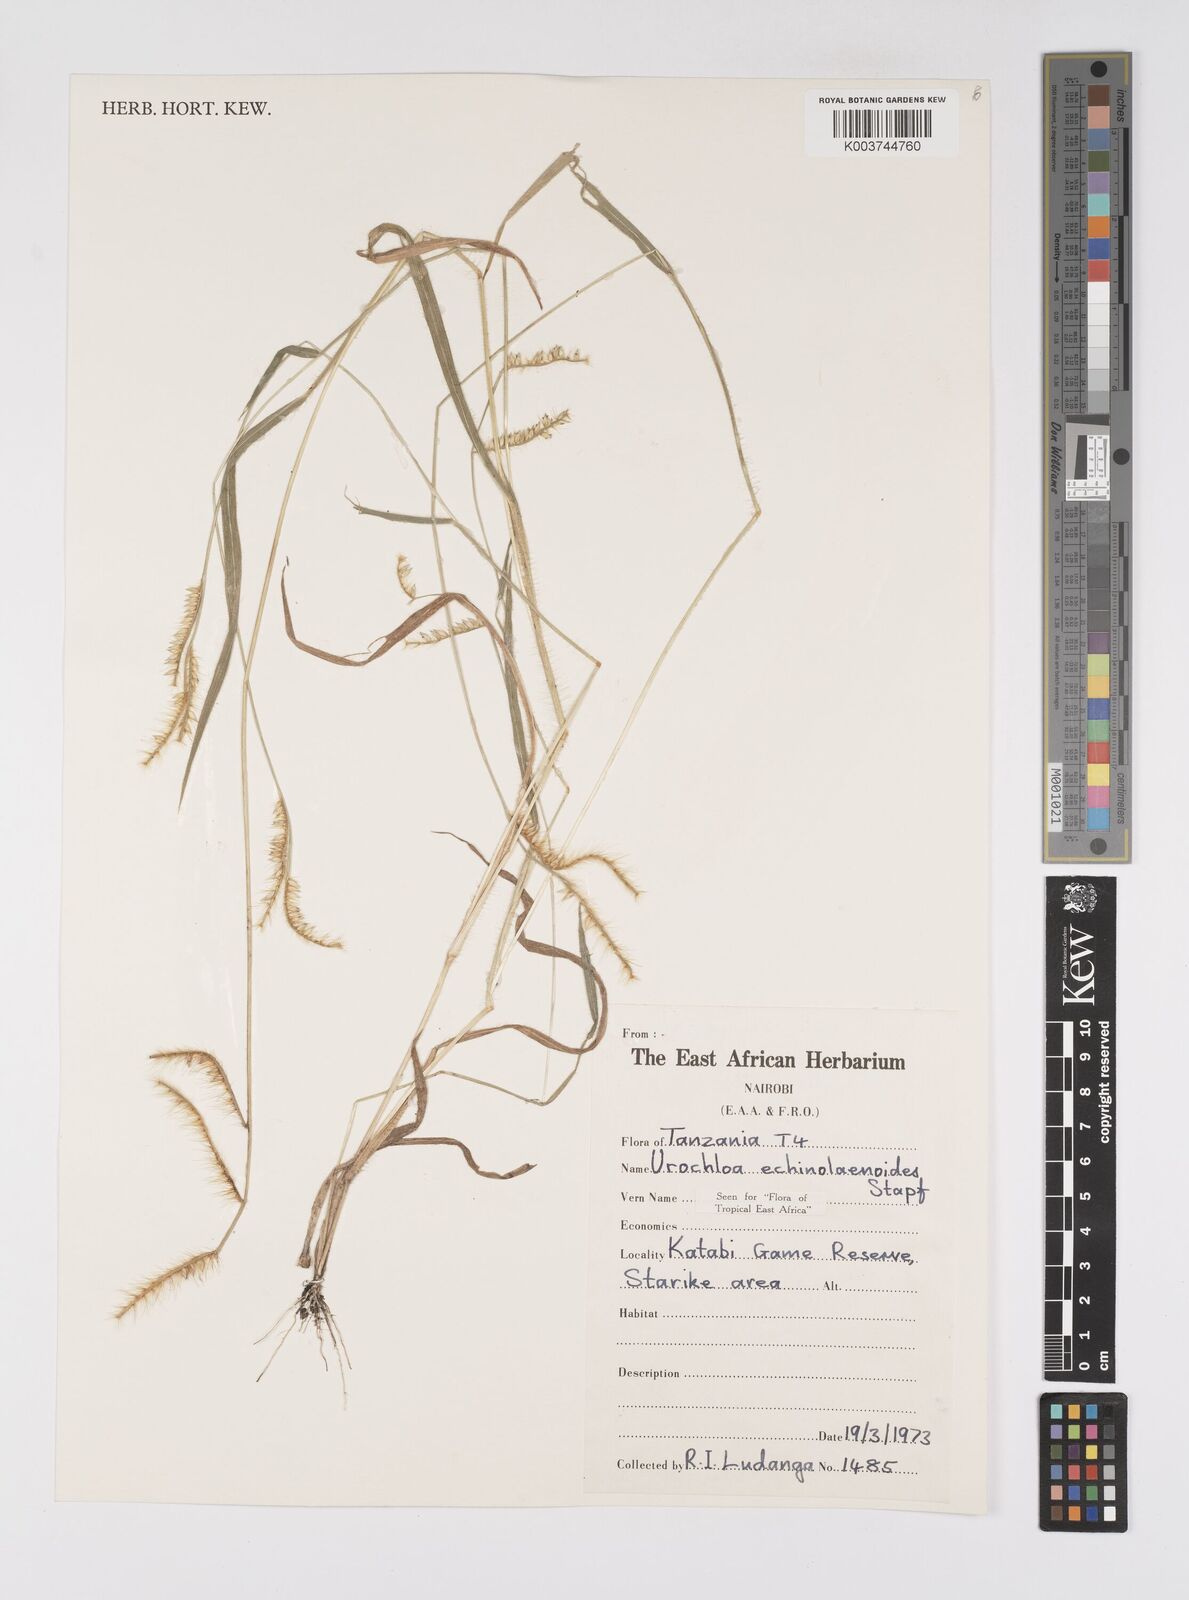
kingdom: Plantae
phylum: Tracheophyta
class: Liliopsida
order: Poales
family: Poaceae
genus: Urochloa
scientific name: Urochloa echinolaenoides
